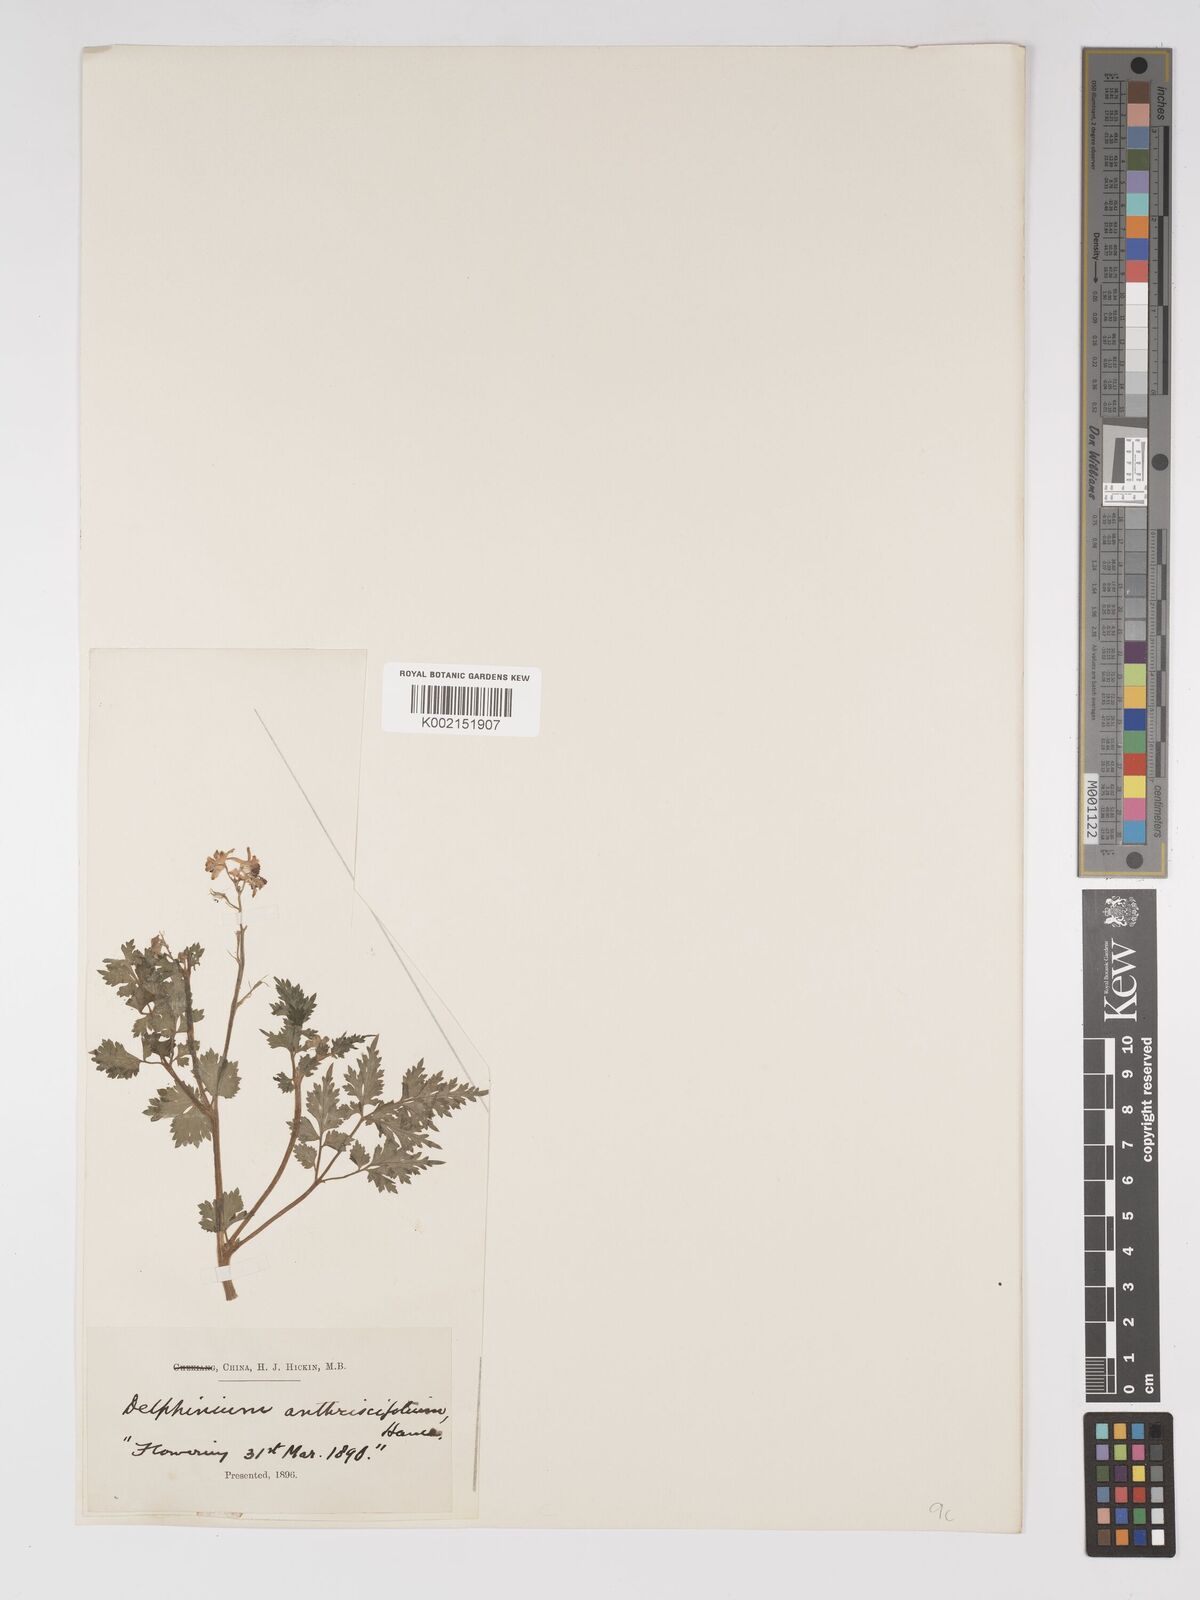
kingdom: Plantae
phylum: Tracheophyta
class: Magnoliopsida
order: Ranunculales
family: Ranunculaceae
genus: Delphinium
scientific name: Delphinium anthriscifolium
